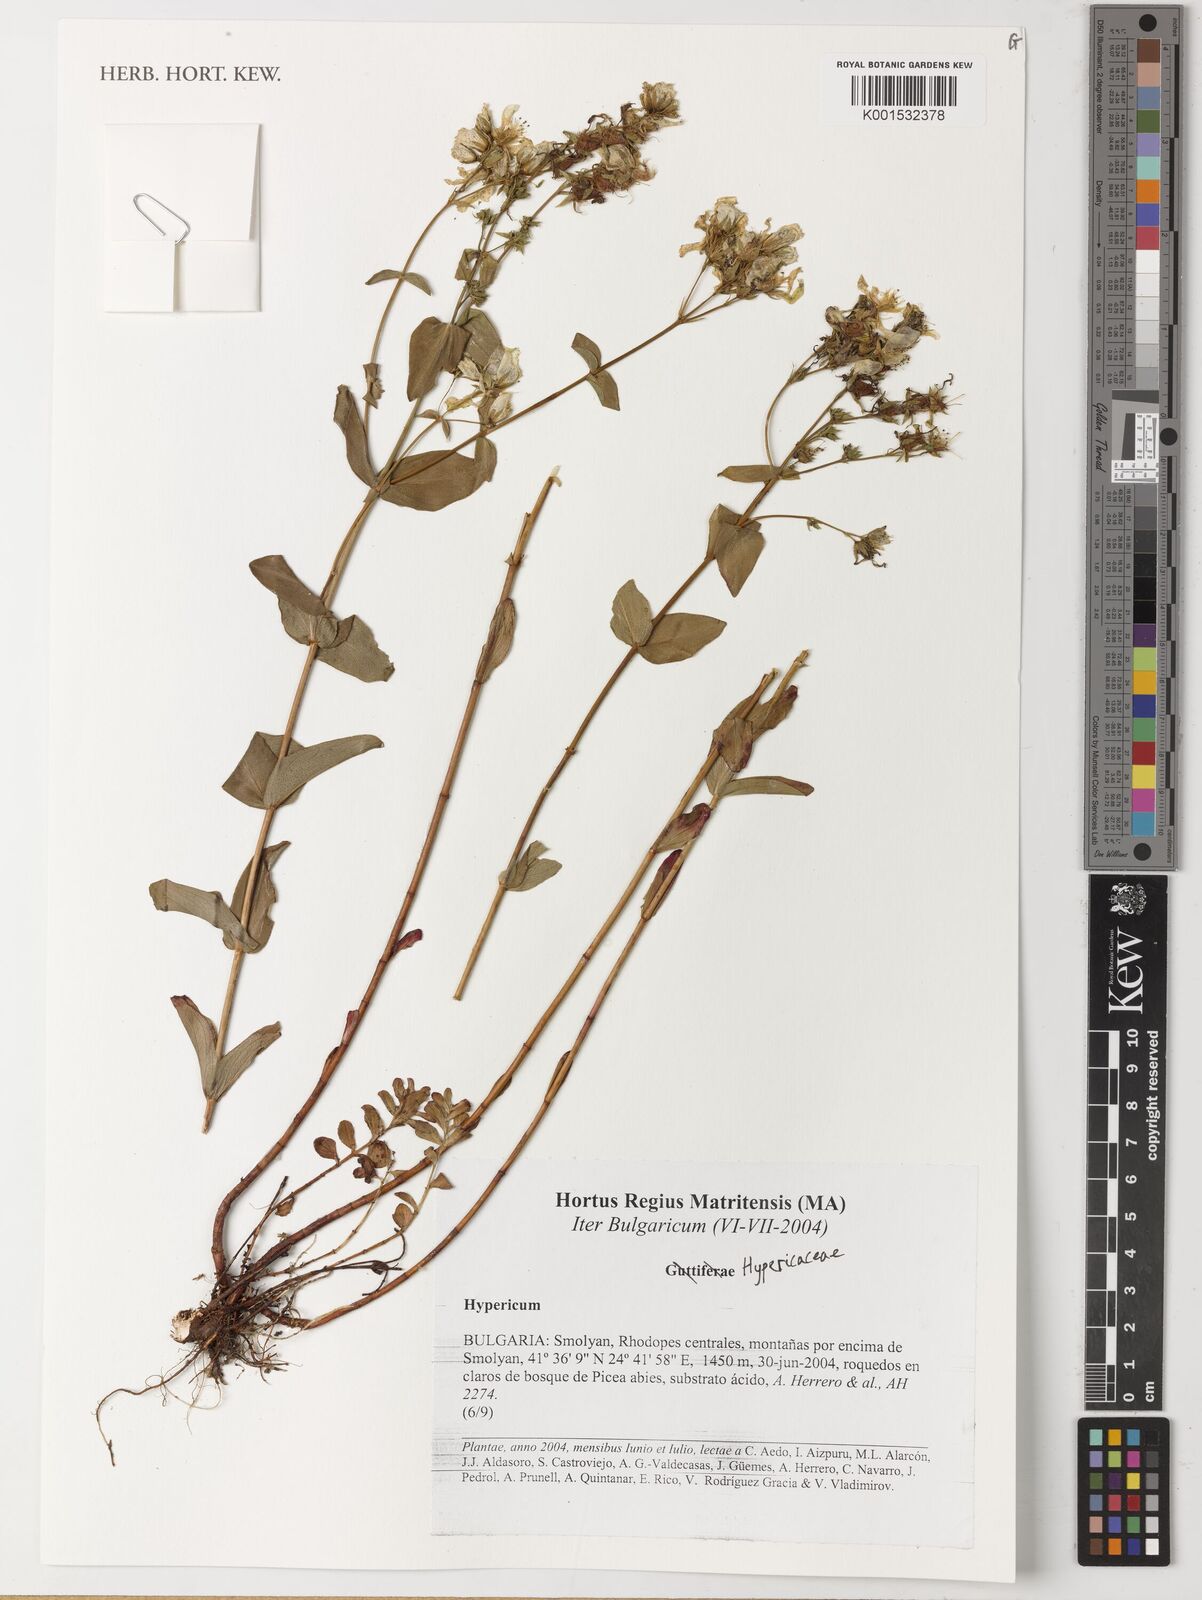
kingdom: Plantae
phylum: Tracheophyta
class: Magnoliopsida
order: Malpighiales
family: Hypericaceae
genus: Hypericum
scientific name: Hypericum
